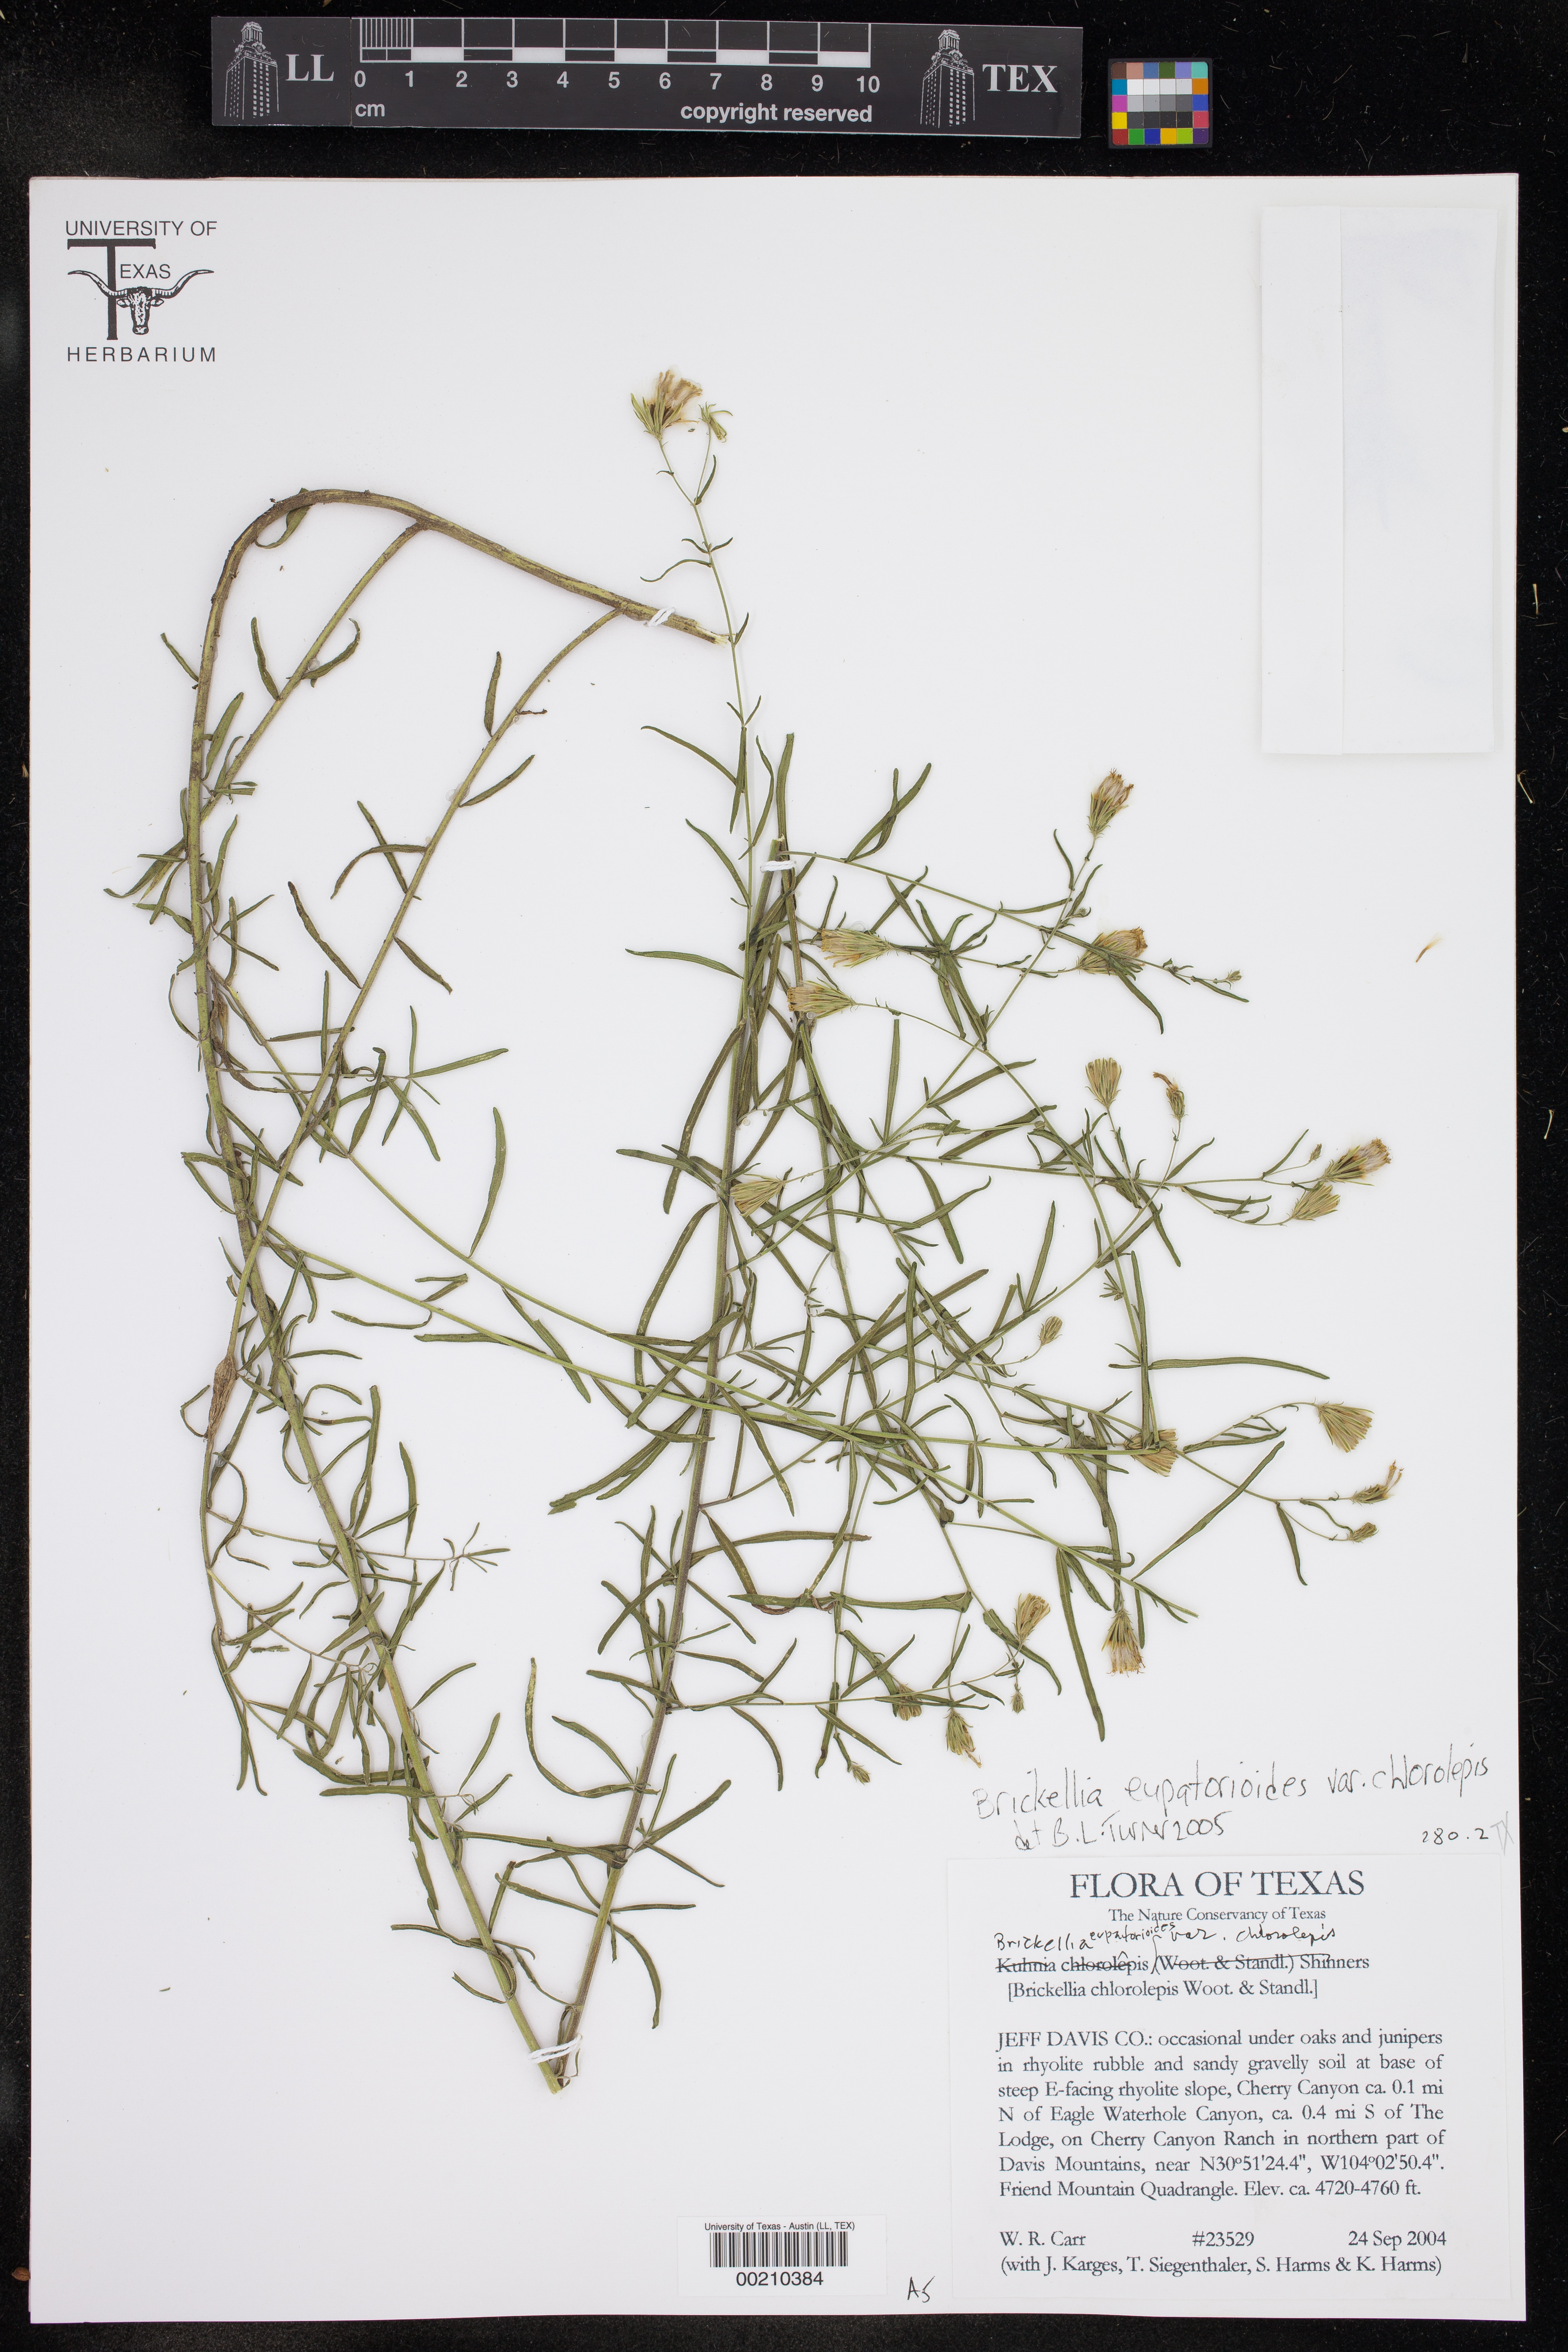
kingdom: Plantae
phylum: Tracheophyta
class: Magnoliopsida
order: Asterales
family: Asteraceae
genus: Brickellia
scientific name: Brickellia leptophylla
